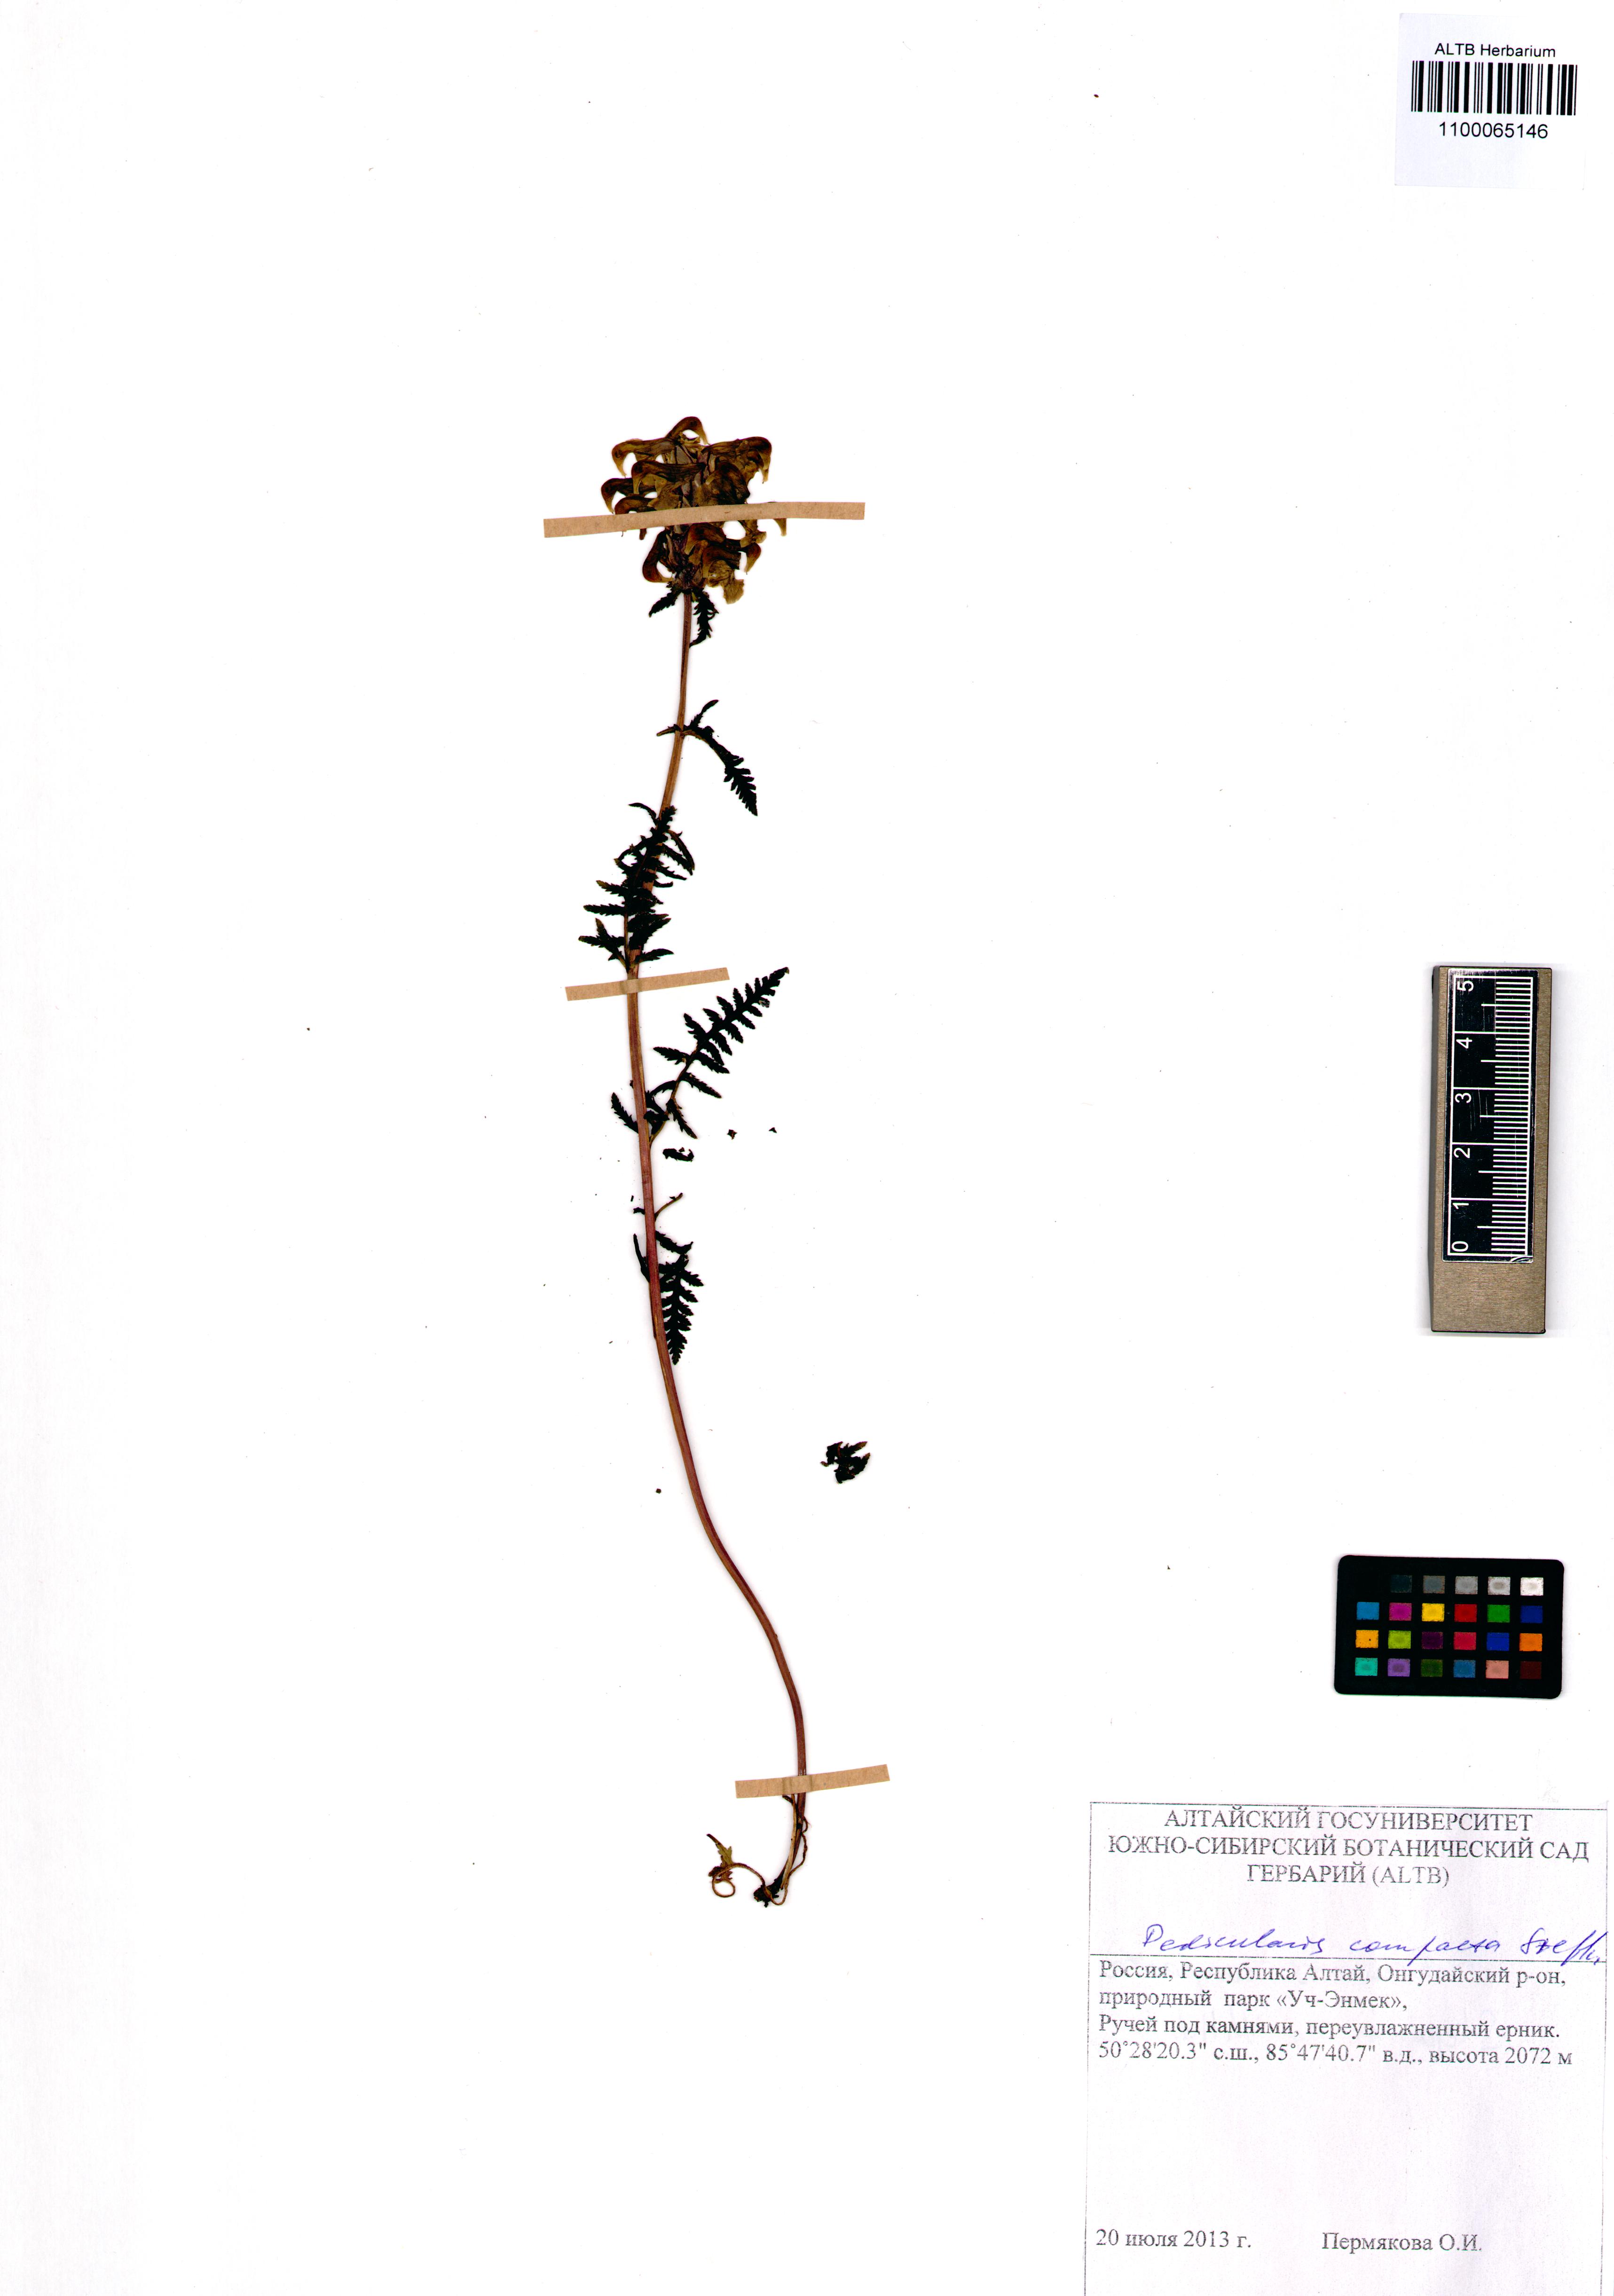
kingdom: Plantae
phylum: Tracheophyta
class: Magnoliopsida
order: Lamiales
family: Orobanchaceae
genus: Pedicularis
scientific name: Pedicularis compacta
